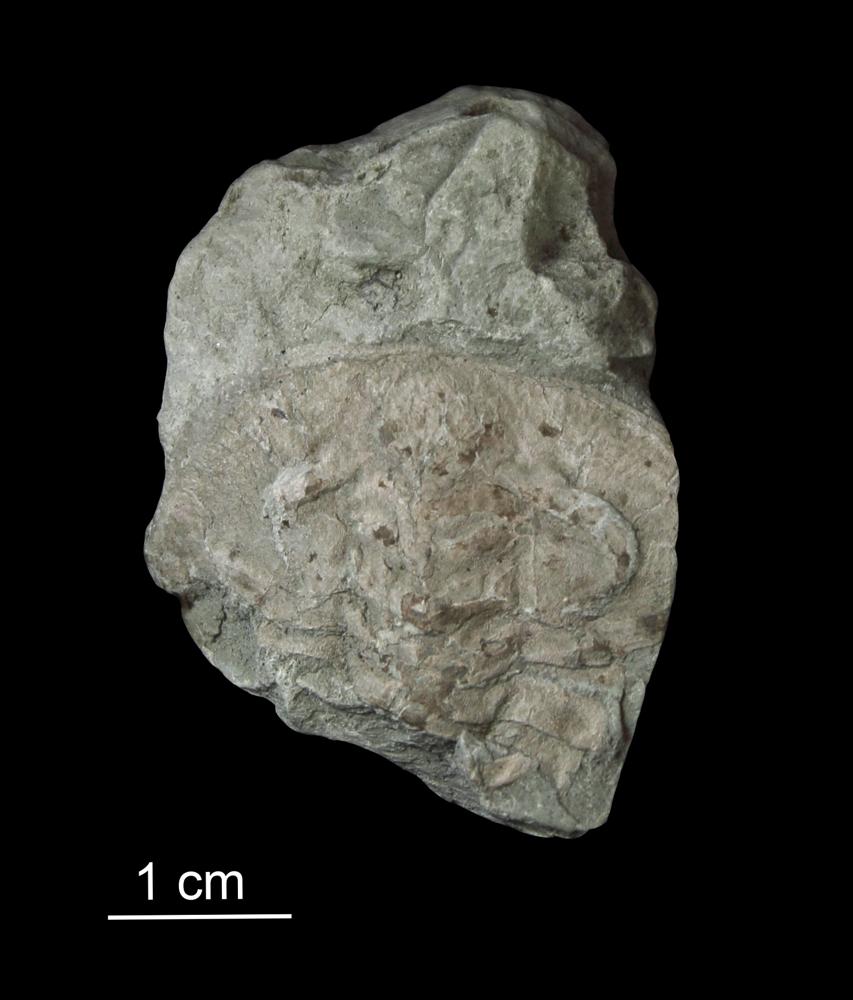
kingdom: Animalia
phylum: Arthropoda
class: Trilobita
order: Redlichiida
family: Holmiidae
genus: Schmidtiellus
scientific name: Schmidtiellus Olenellus mickwitzi
